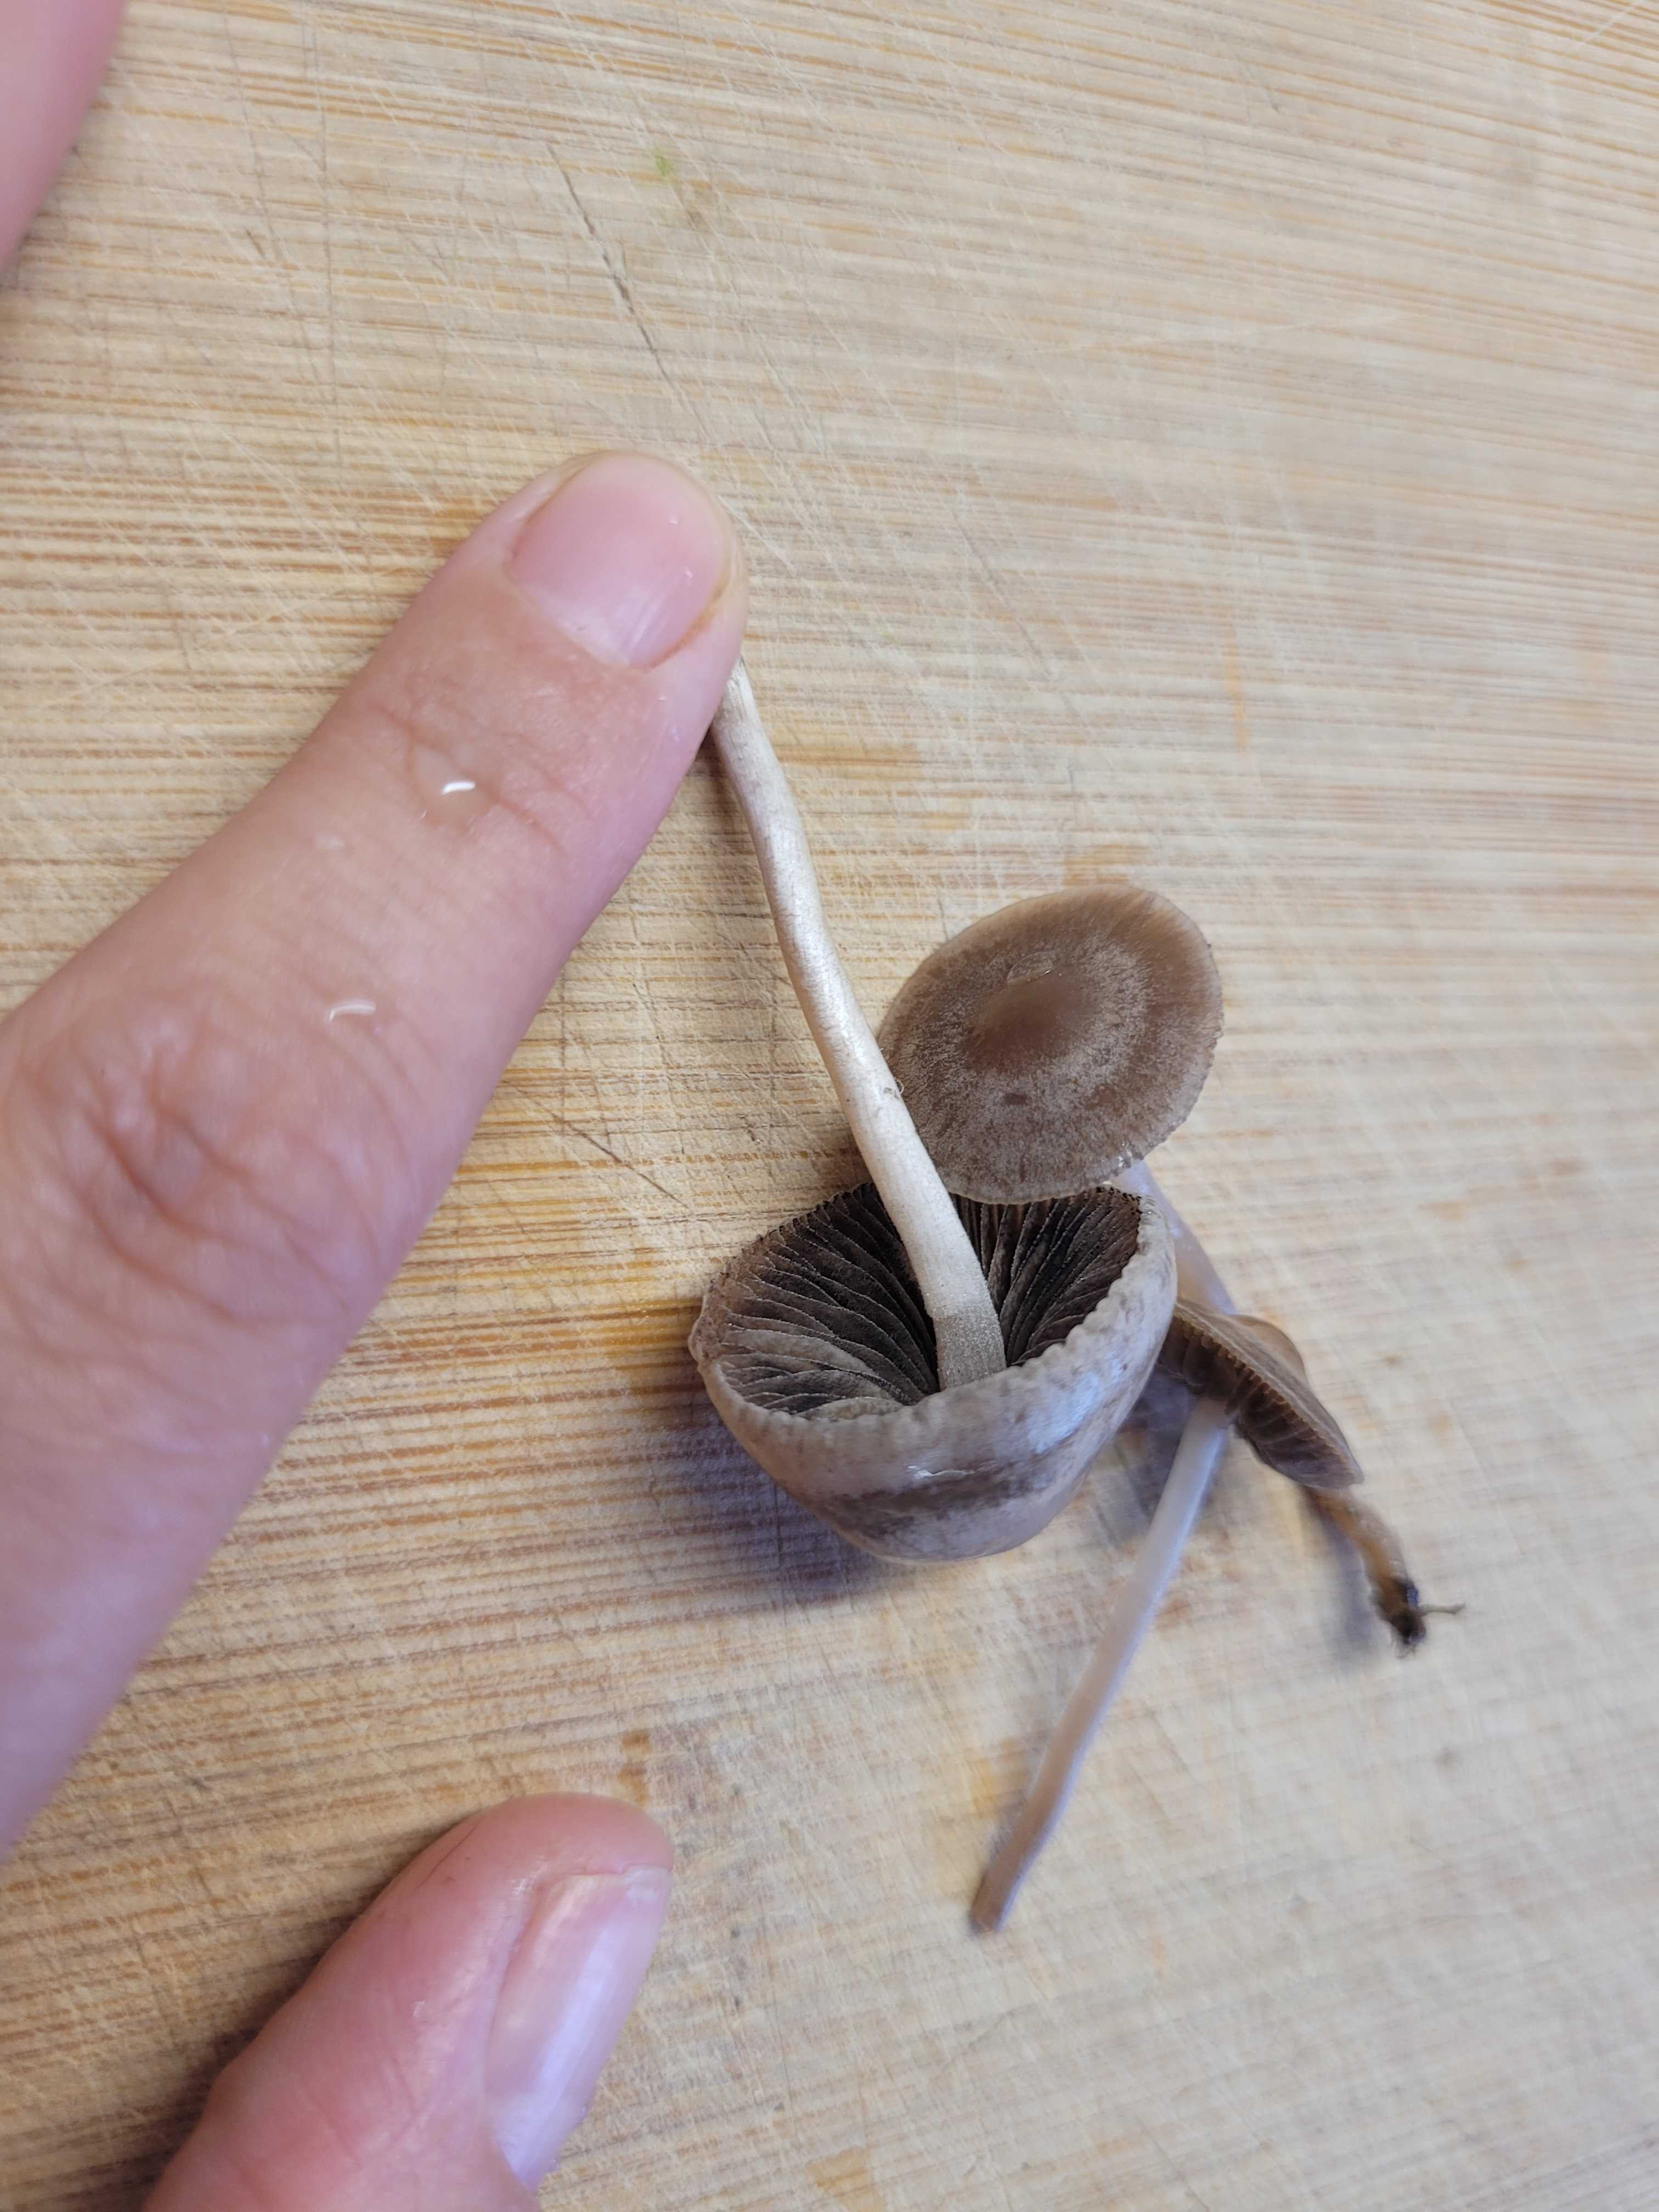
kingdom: Fungi
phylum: Basidiomycota
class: Agaricomycetes
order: Agaricales
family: Bolbitiaceae
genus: Panaeolina
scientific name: Panaeolina foenisecii
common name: høslætsvamp
